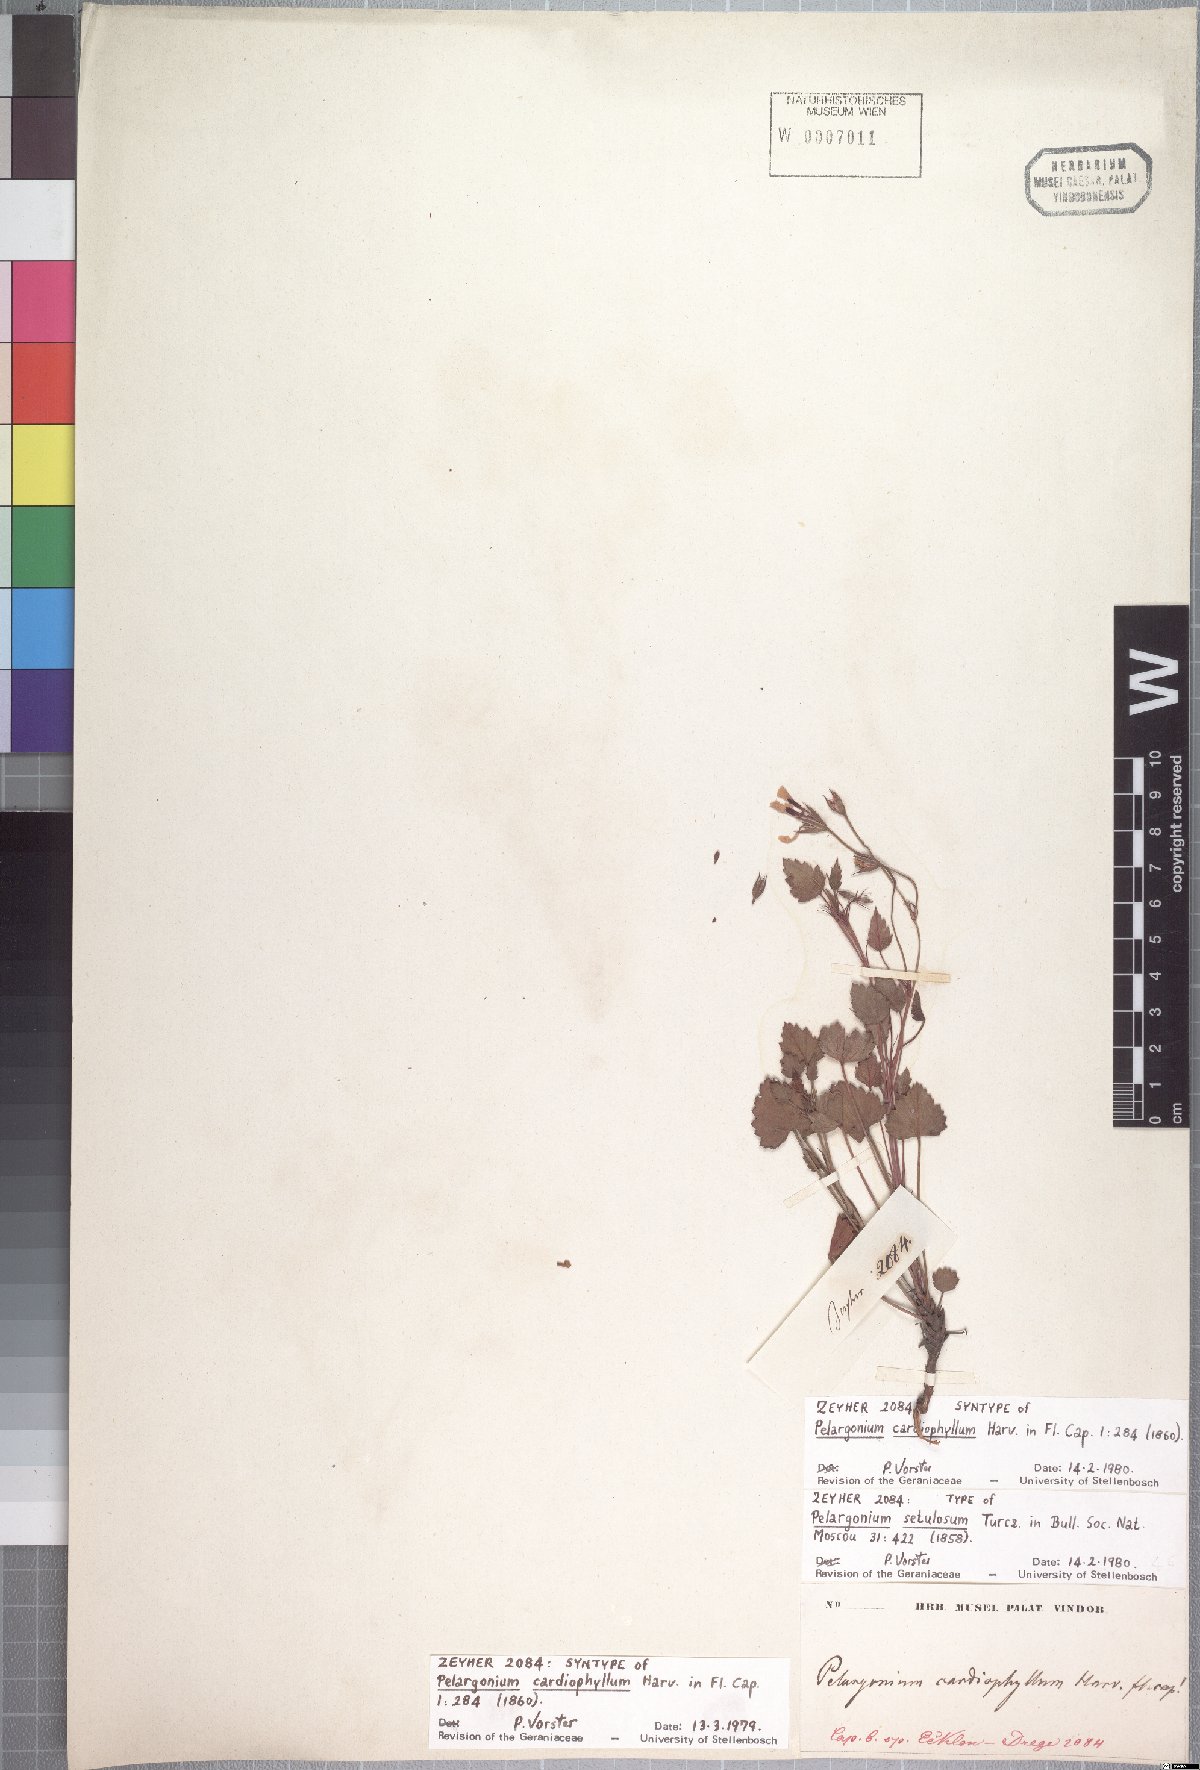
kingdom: Plantae
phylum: Tracheophyta
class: Magnoliopsida
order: Geraniales
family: Geraniaceae
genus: Pelargonium
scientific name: Pelargonium setulosum
